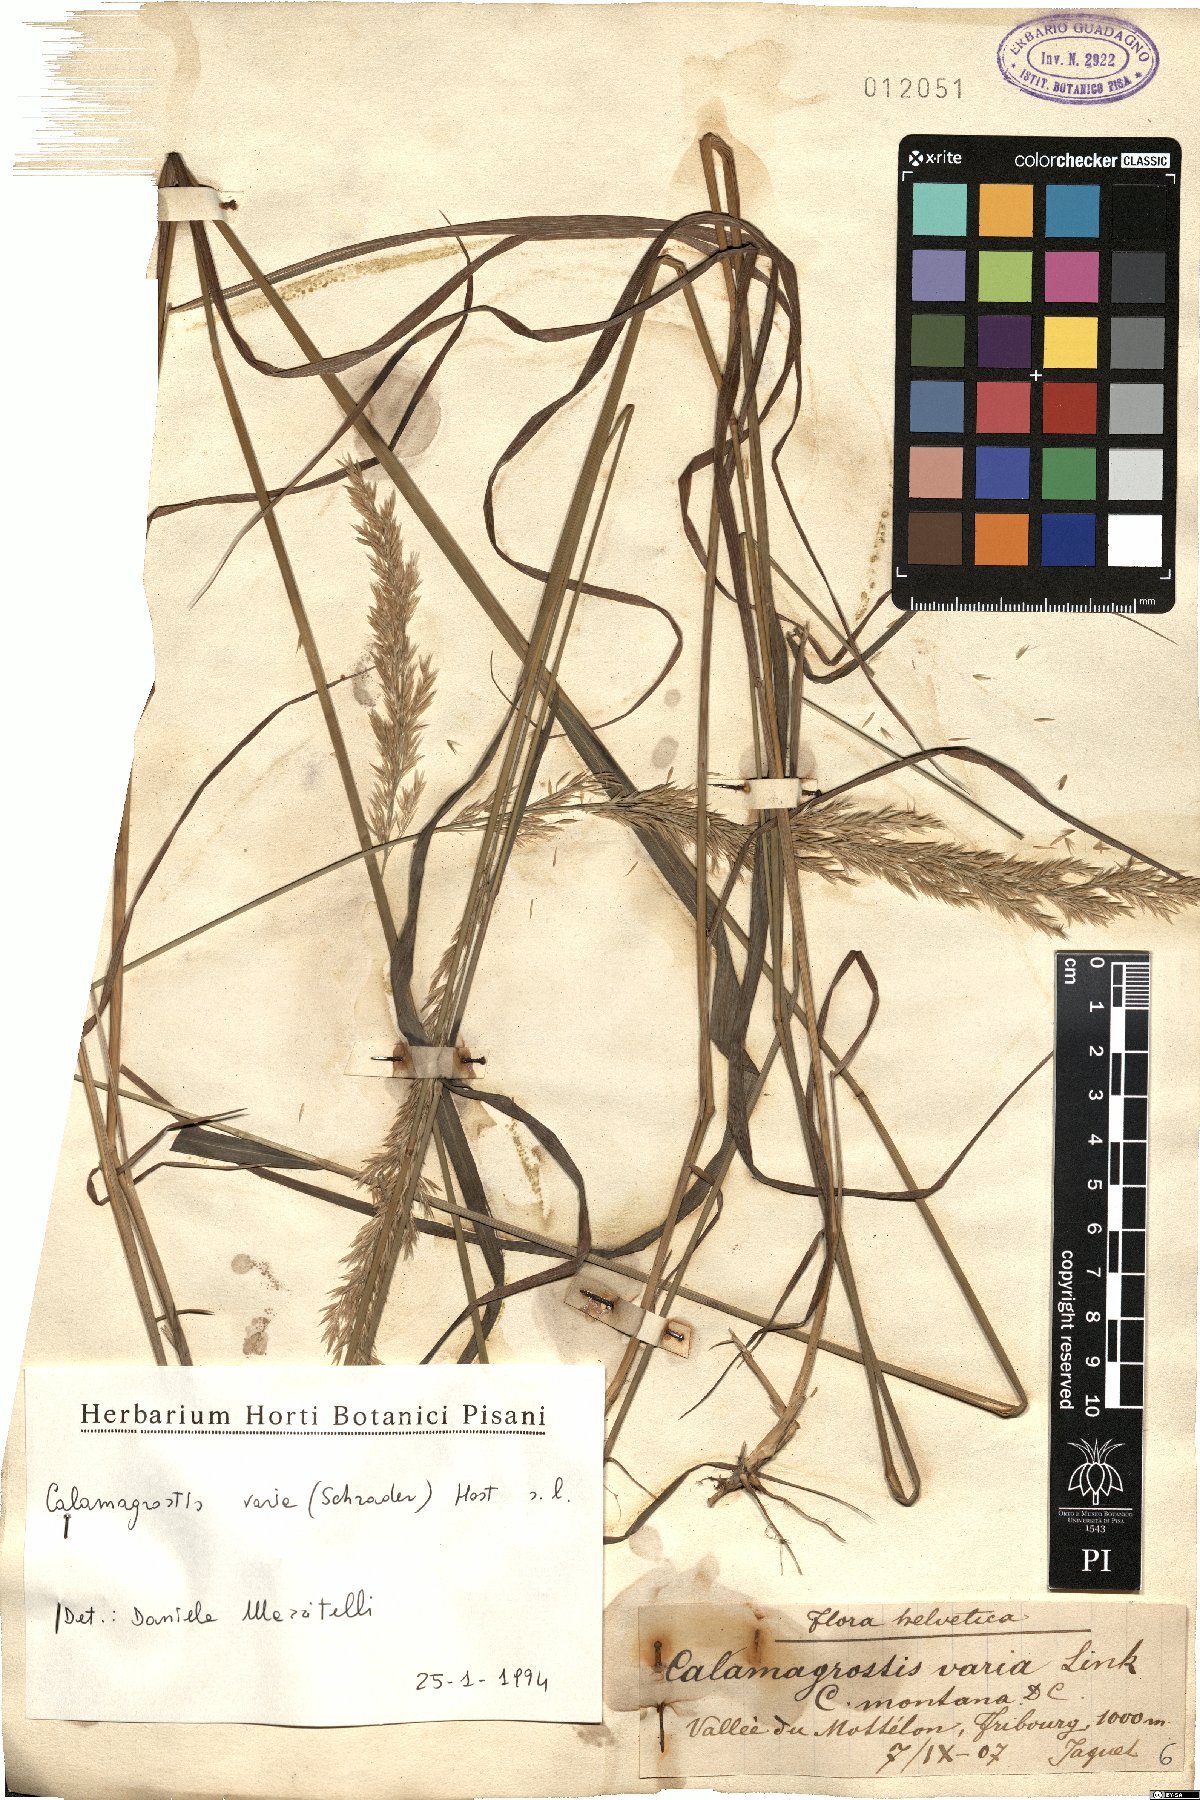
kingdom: Plantae
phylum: Tracheophyta
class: Liliopsida
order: Poales
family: Poaceae
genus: Calamagrostis
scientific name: Calamagrostis varia
